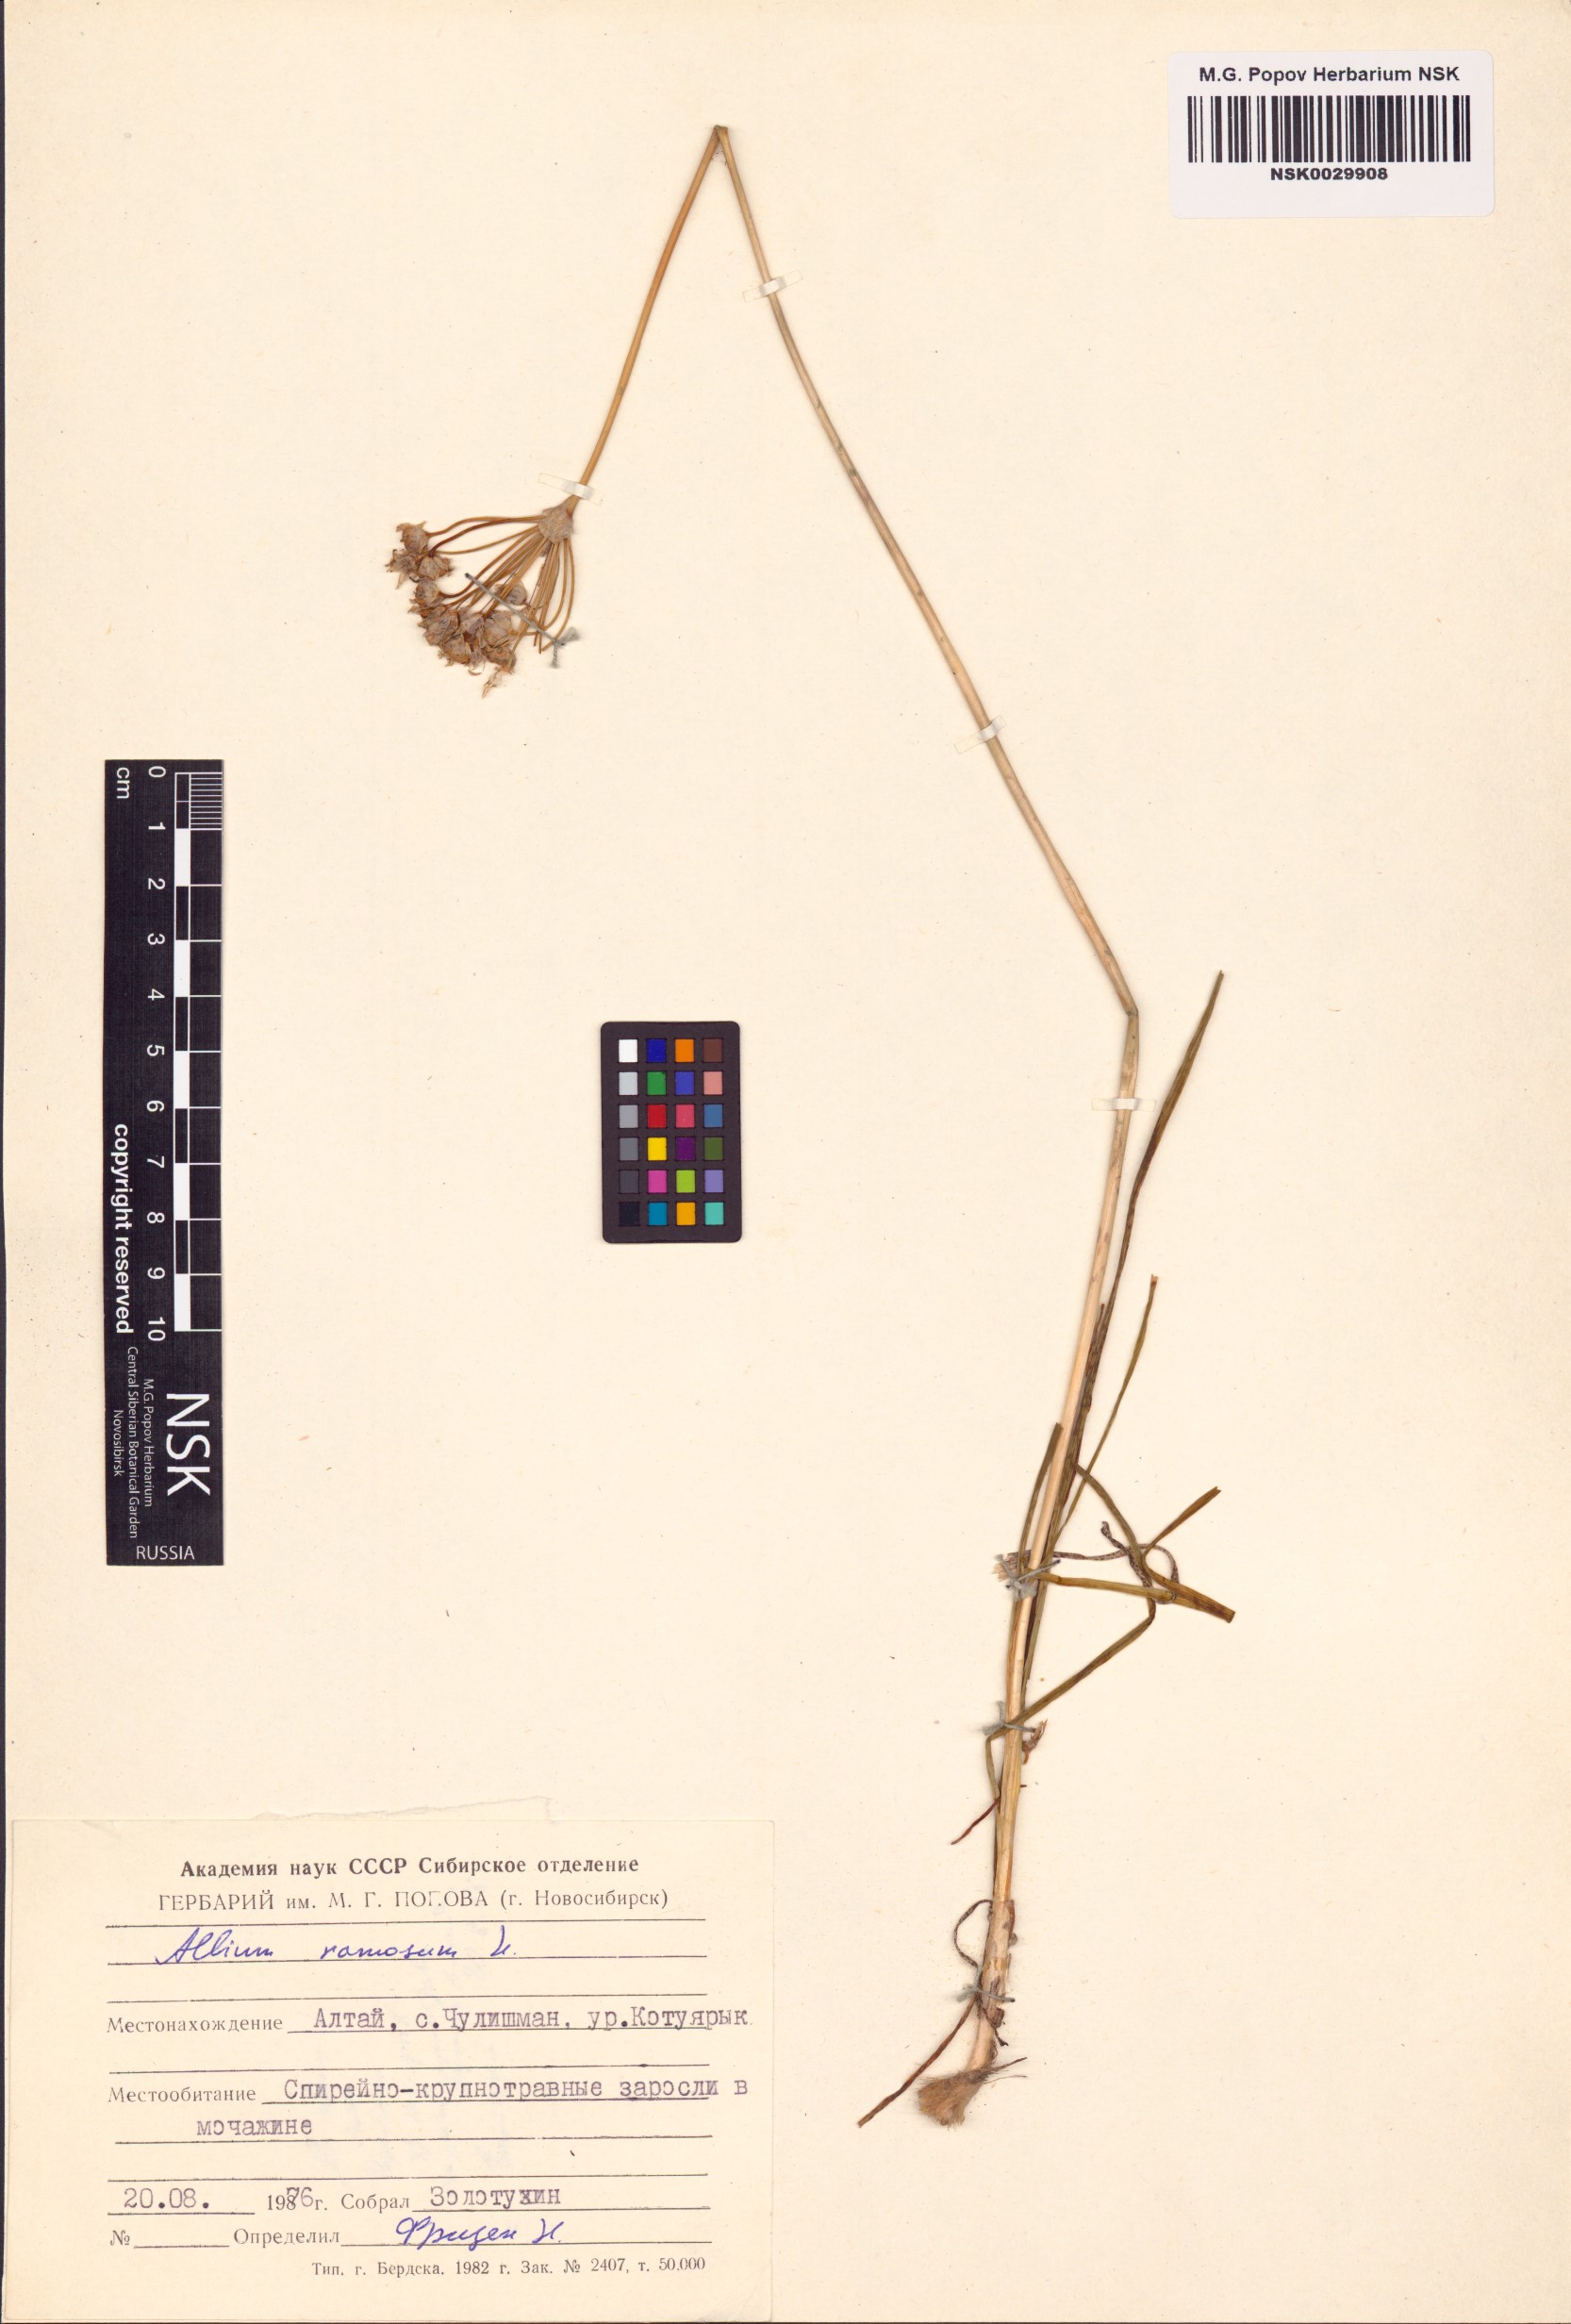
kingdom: Plantae
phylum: Tracheophyta
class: Liliopsida
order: Asparagales
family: Amaryllidaceae
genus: Allium
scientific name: Allium ramosum
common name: Fragrant garlic
